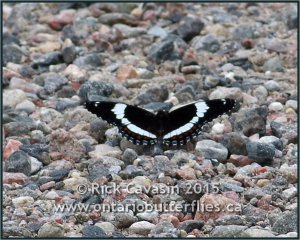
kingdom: Animalia
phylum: Arthropoda
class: Insecta
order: Lepidoptera
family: Nymphalidae
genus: Limenitis
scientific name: Limenitis arthemis
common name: Red-spotted Admiral
